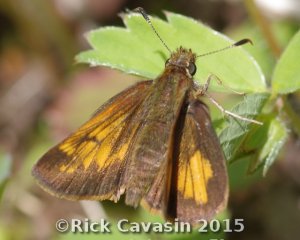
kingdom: Animalia
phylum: Arthropoda
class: Insecta
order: Lepidoptera
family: Hesperiidae
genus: Lon
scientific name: Lon hobomok
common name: Hobomok Skipper
